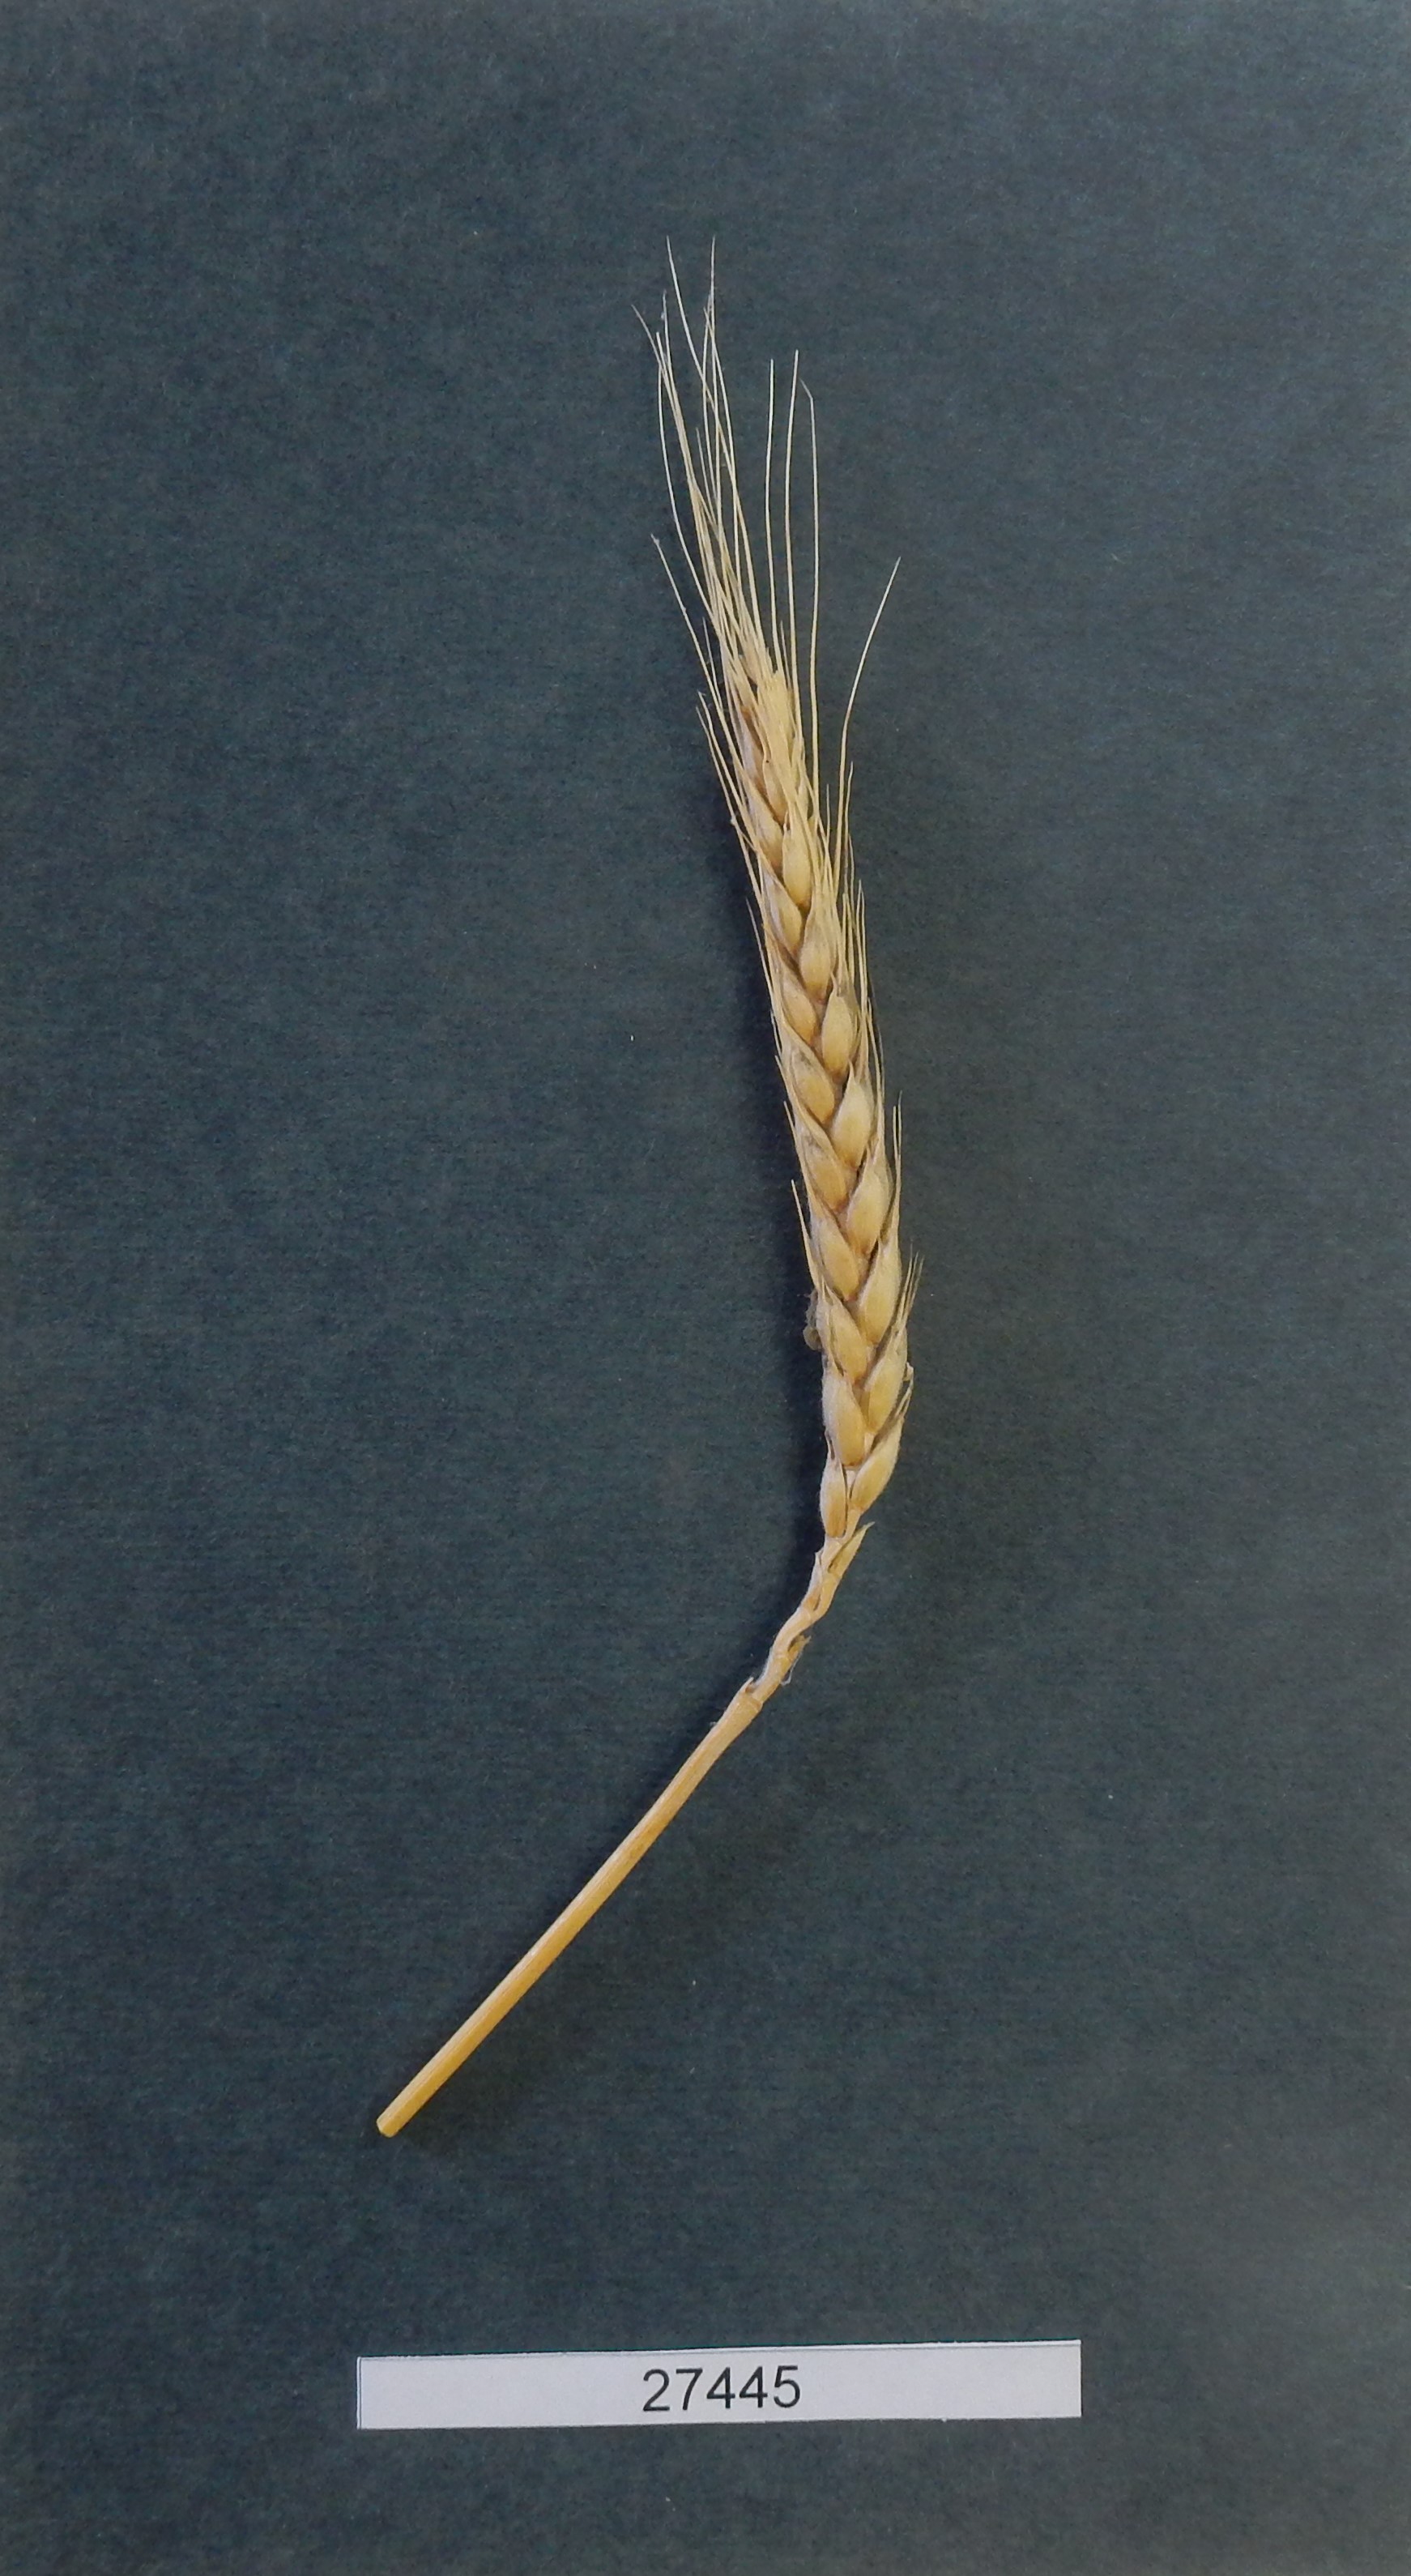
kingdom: Plantae
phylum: Tracheophyta
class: Liliopsida
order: Poales
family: Poaceae
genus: Triticum
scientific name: Triticum aestivum
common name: Common wheat
